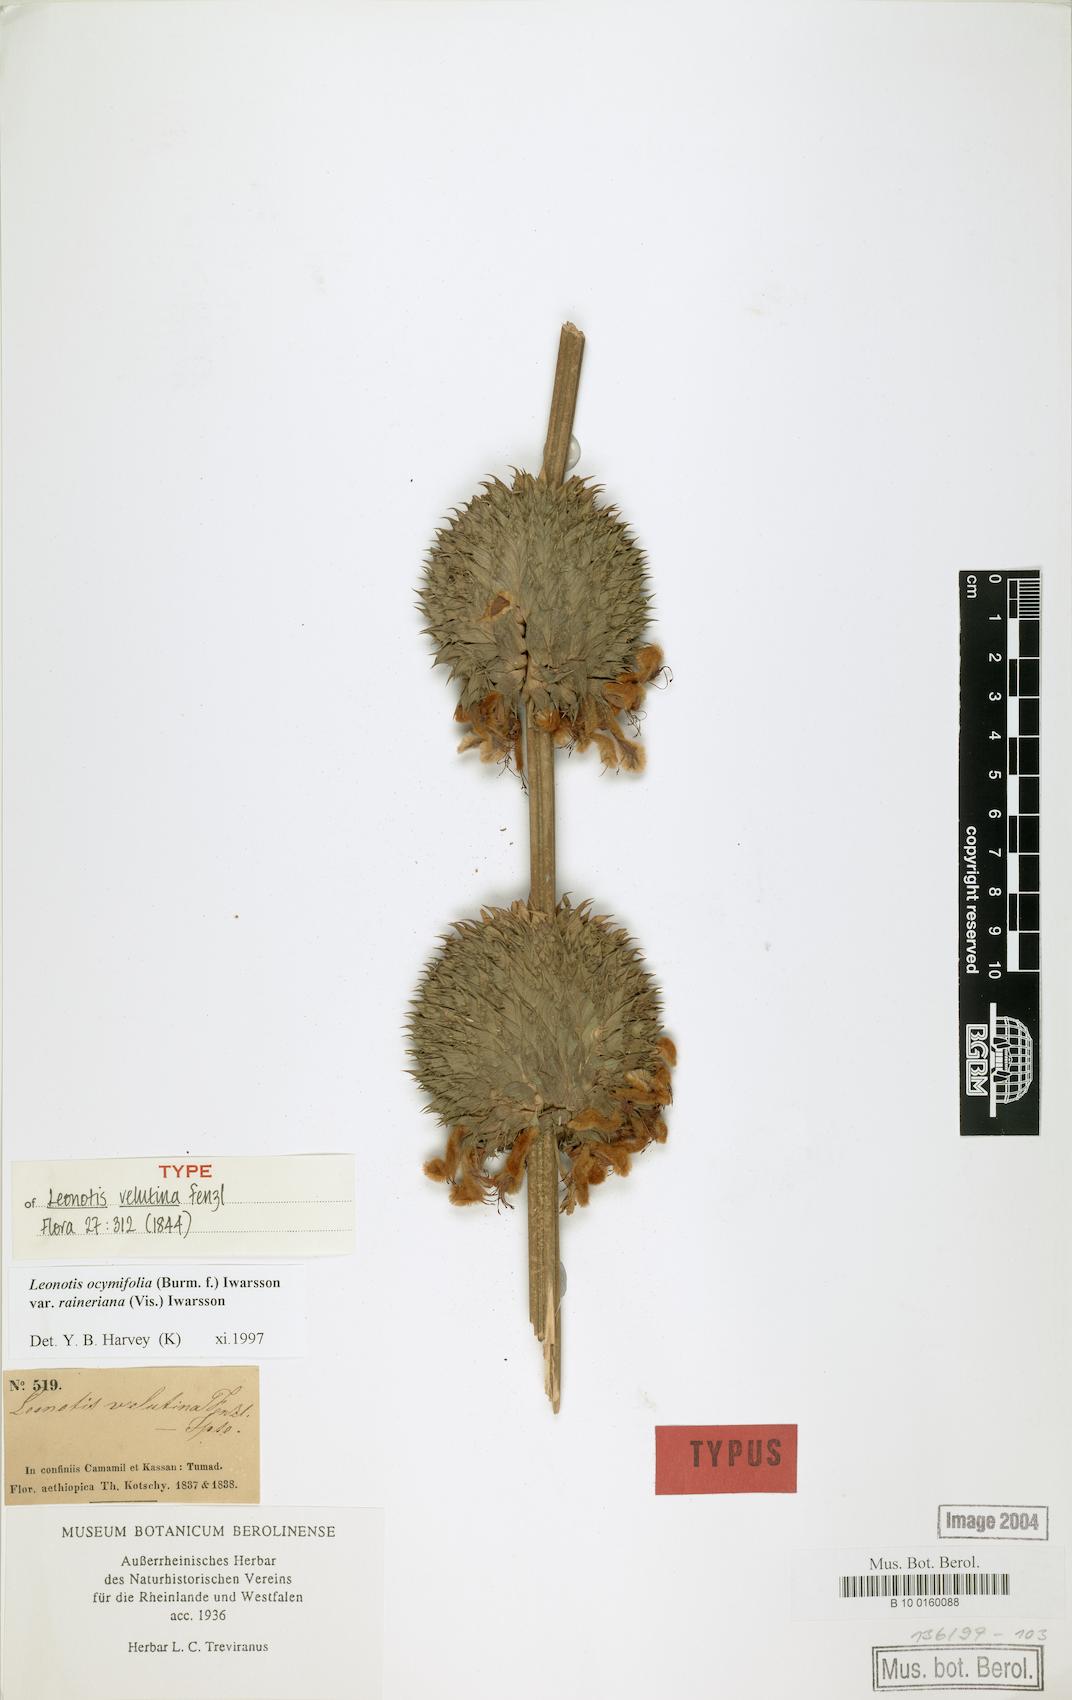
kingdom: Plantae
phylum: Tracheophyta
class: Magnoliopsida
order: Lamiales
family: Lamiaceae
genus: Leonotis
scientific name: Leonotis ocymifolia
